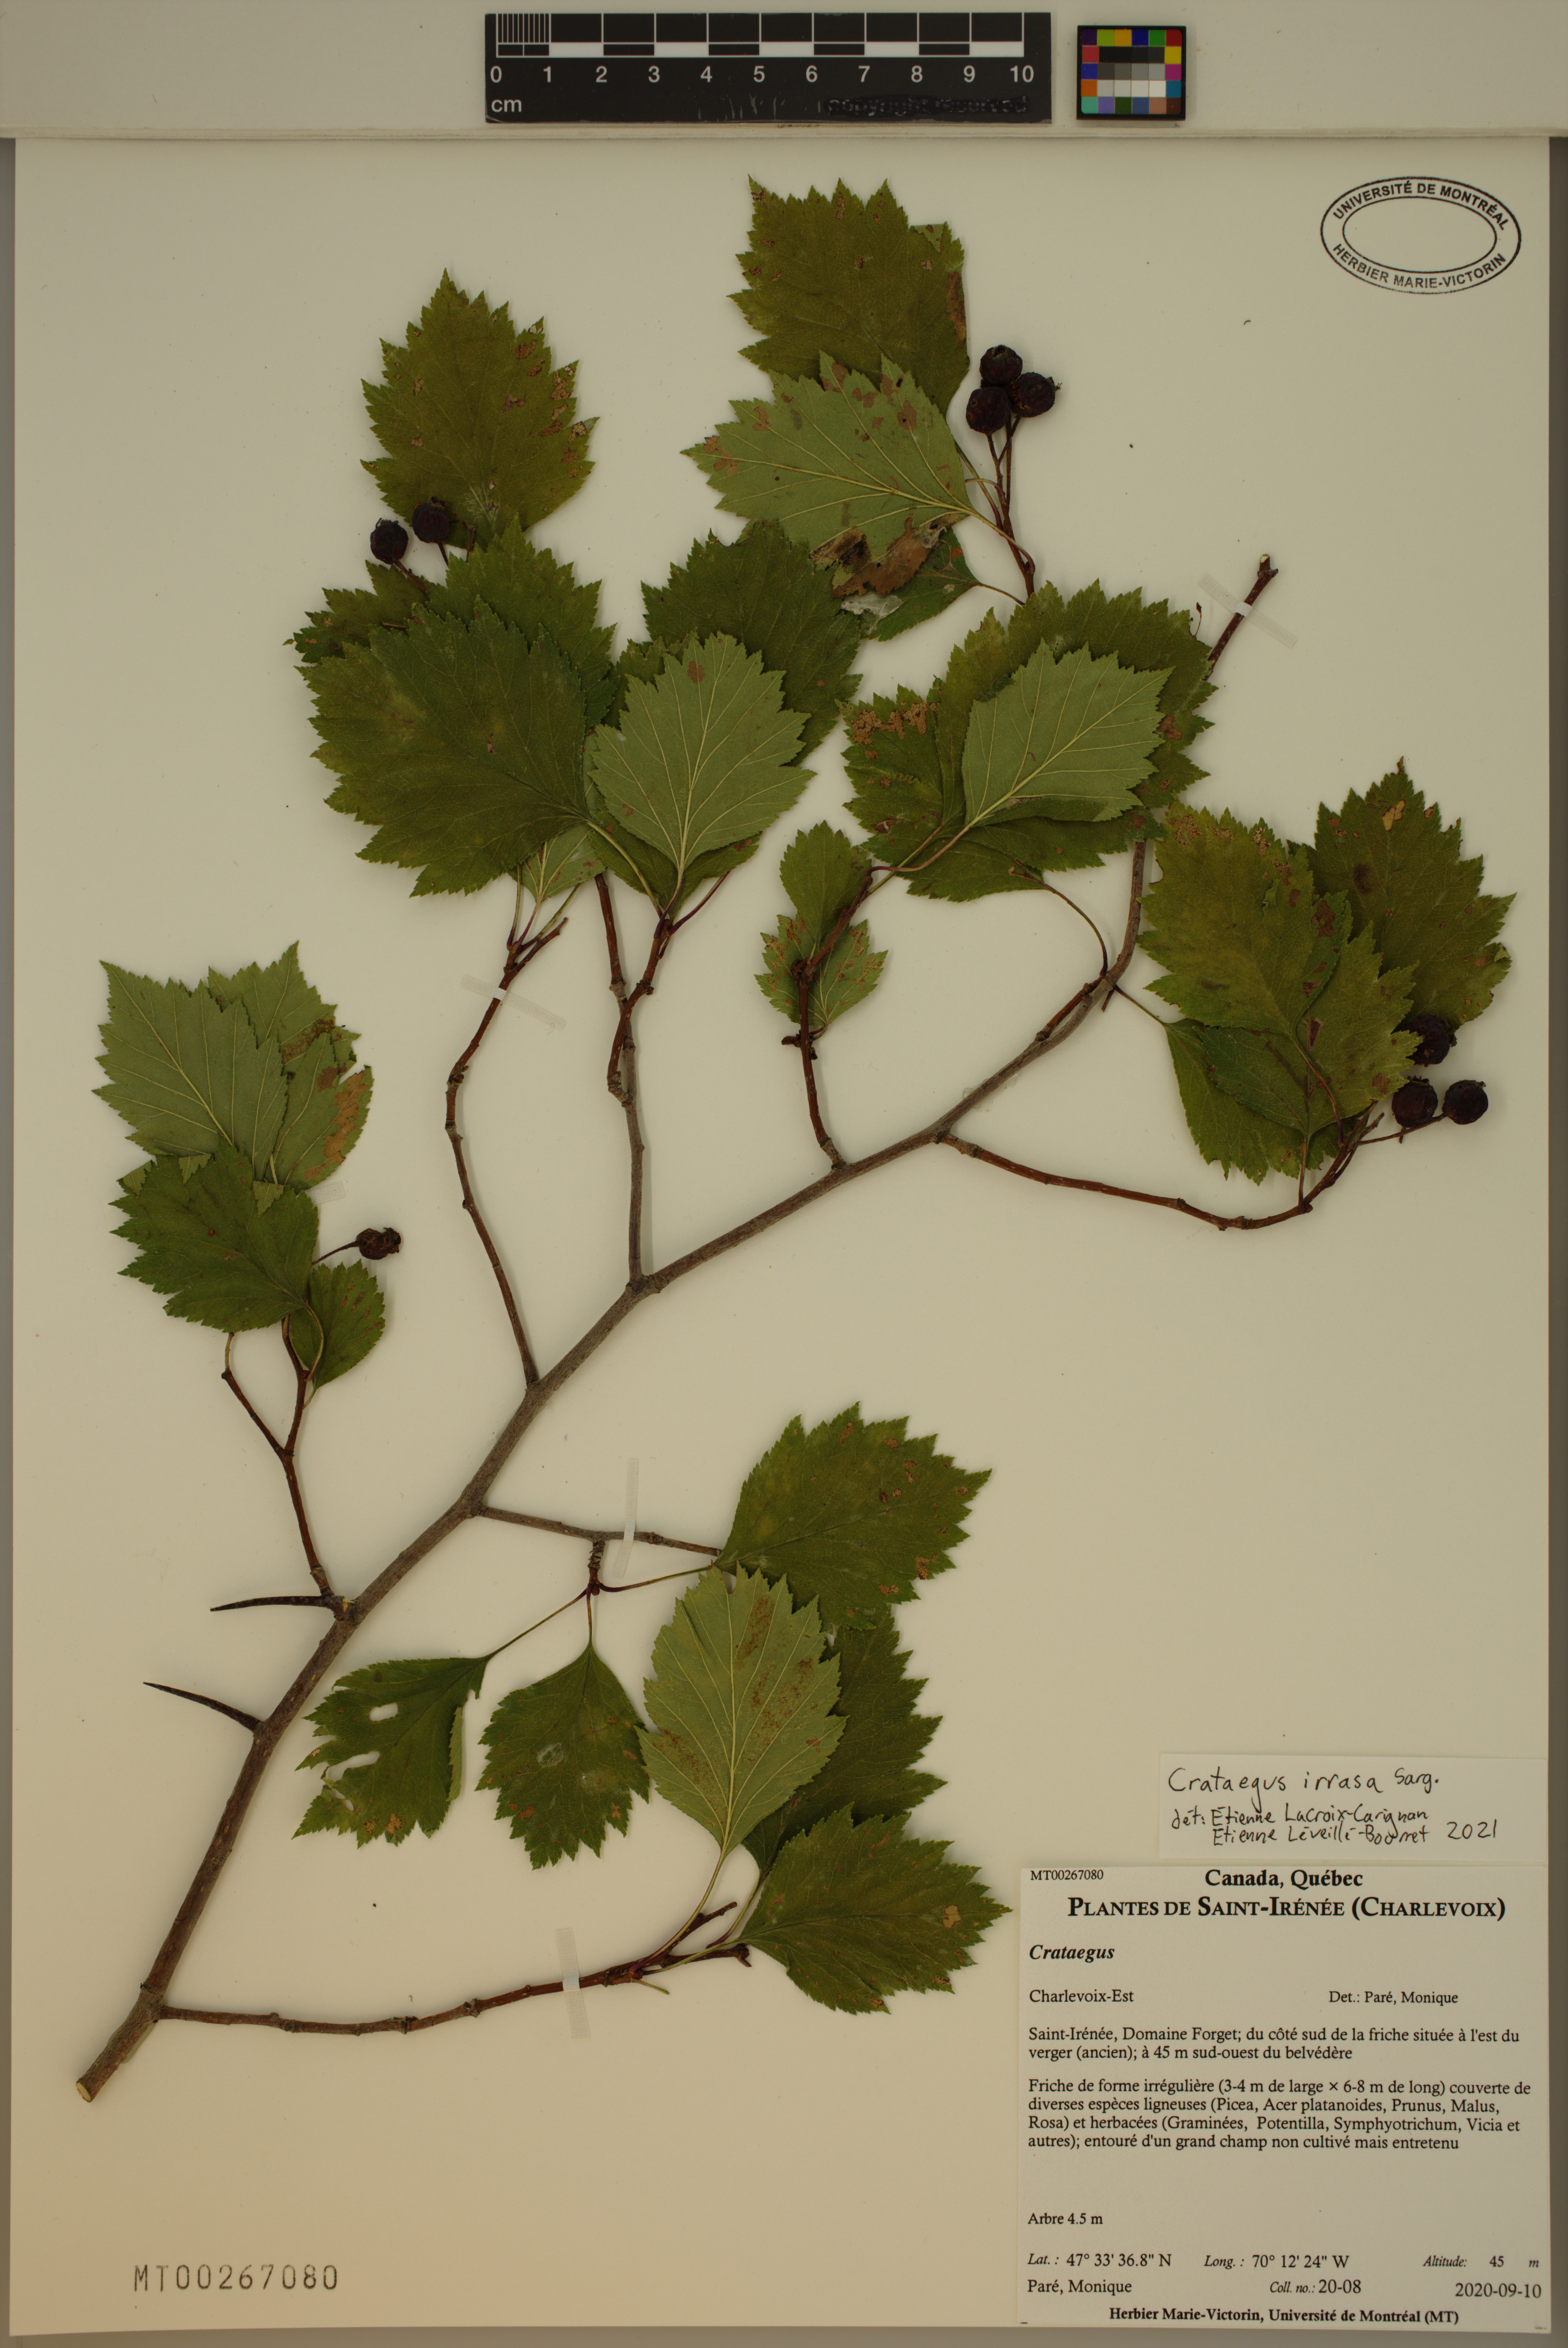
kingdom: Plantae
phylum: Tracheophyta
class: Magnoliopsida
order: Rosales
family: Rosaceae
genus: Crataegus
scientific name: Crataegus irrasa
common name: Unshorn hawthorn
